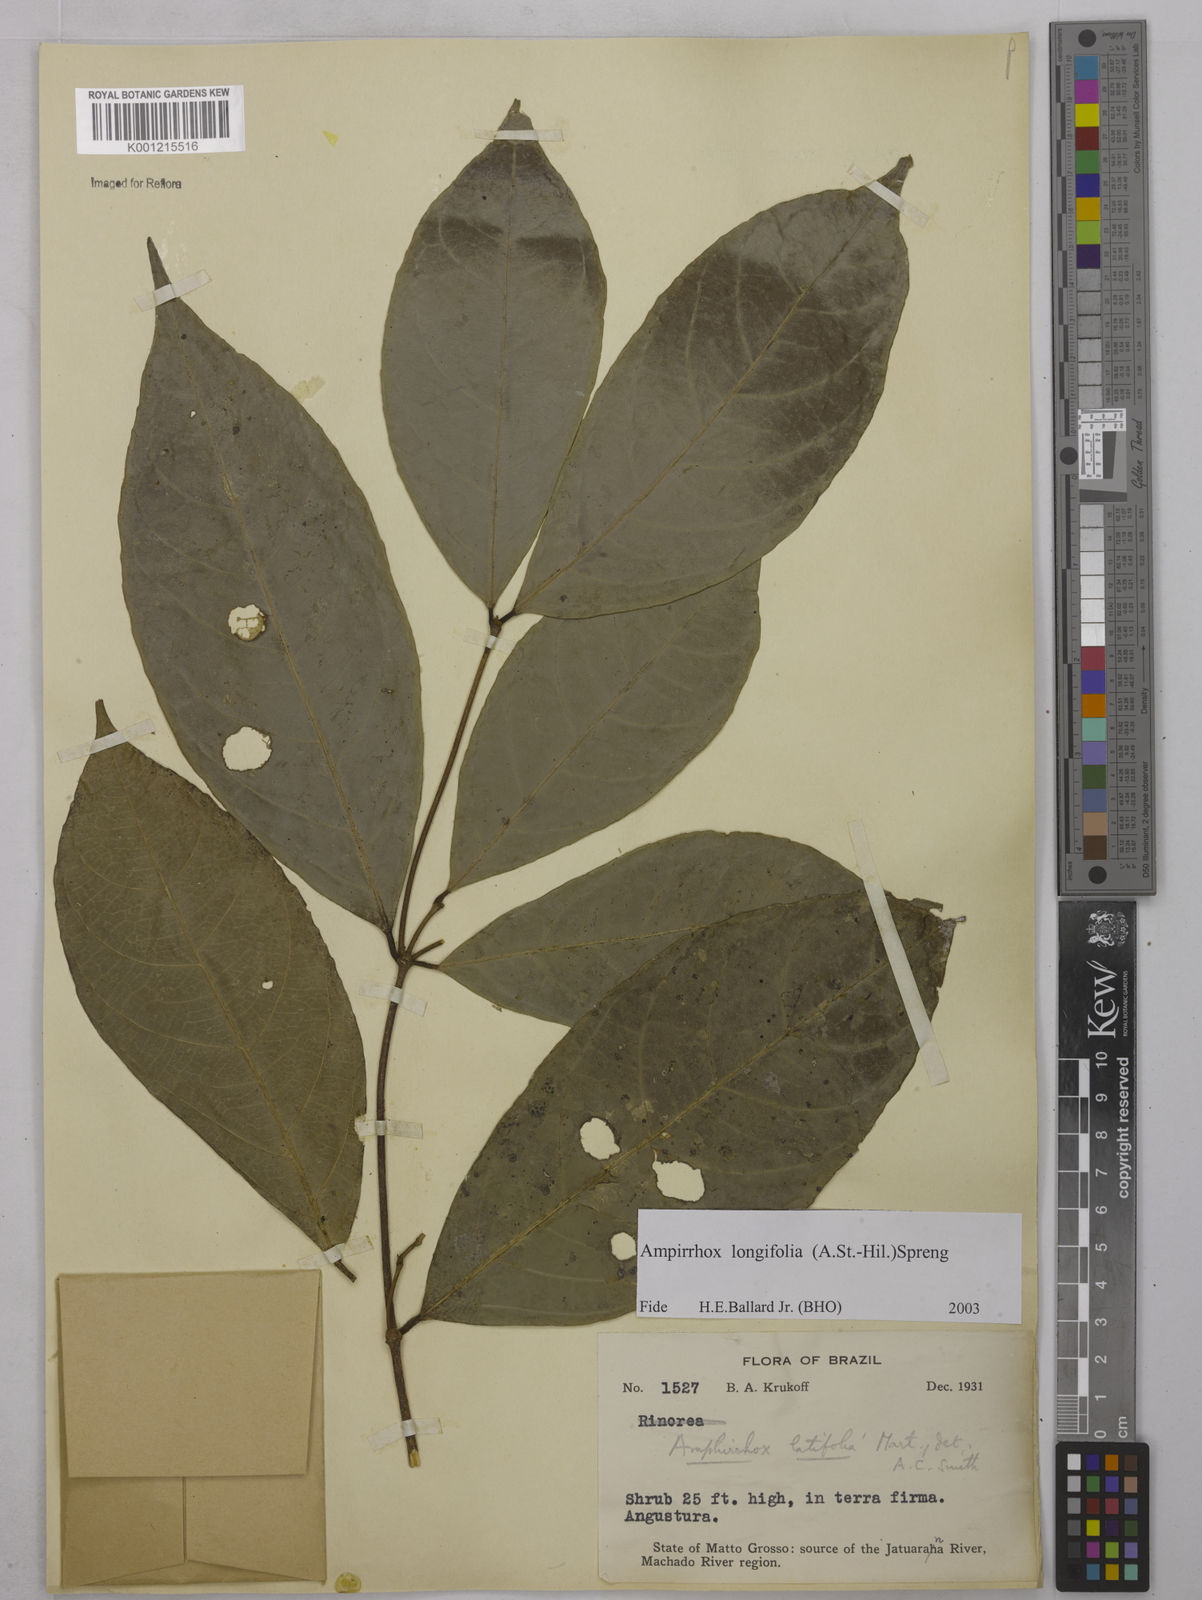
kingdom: Plantae
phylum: Tracheophyta
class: Magnoliopsida
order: Malpighiales
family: Violaceae
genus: Amphirrhox
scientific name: Amphirrhox longifolia
